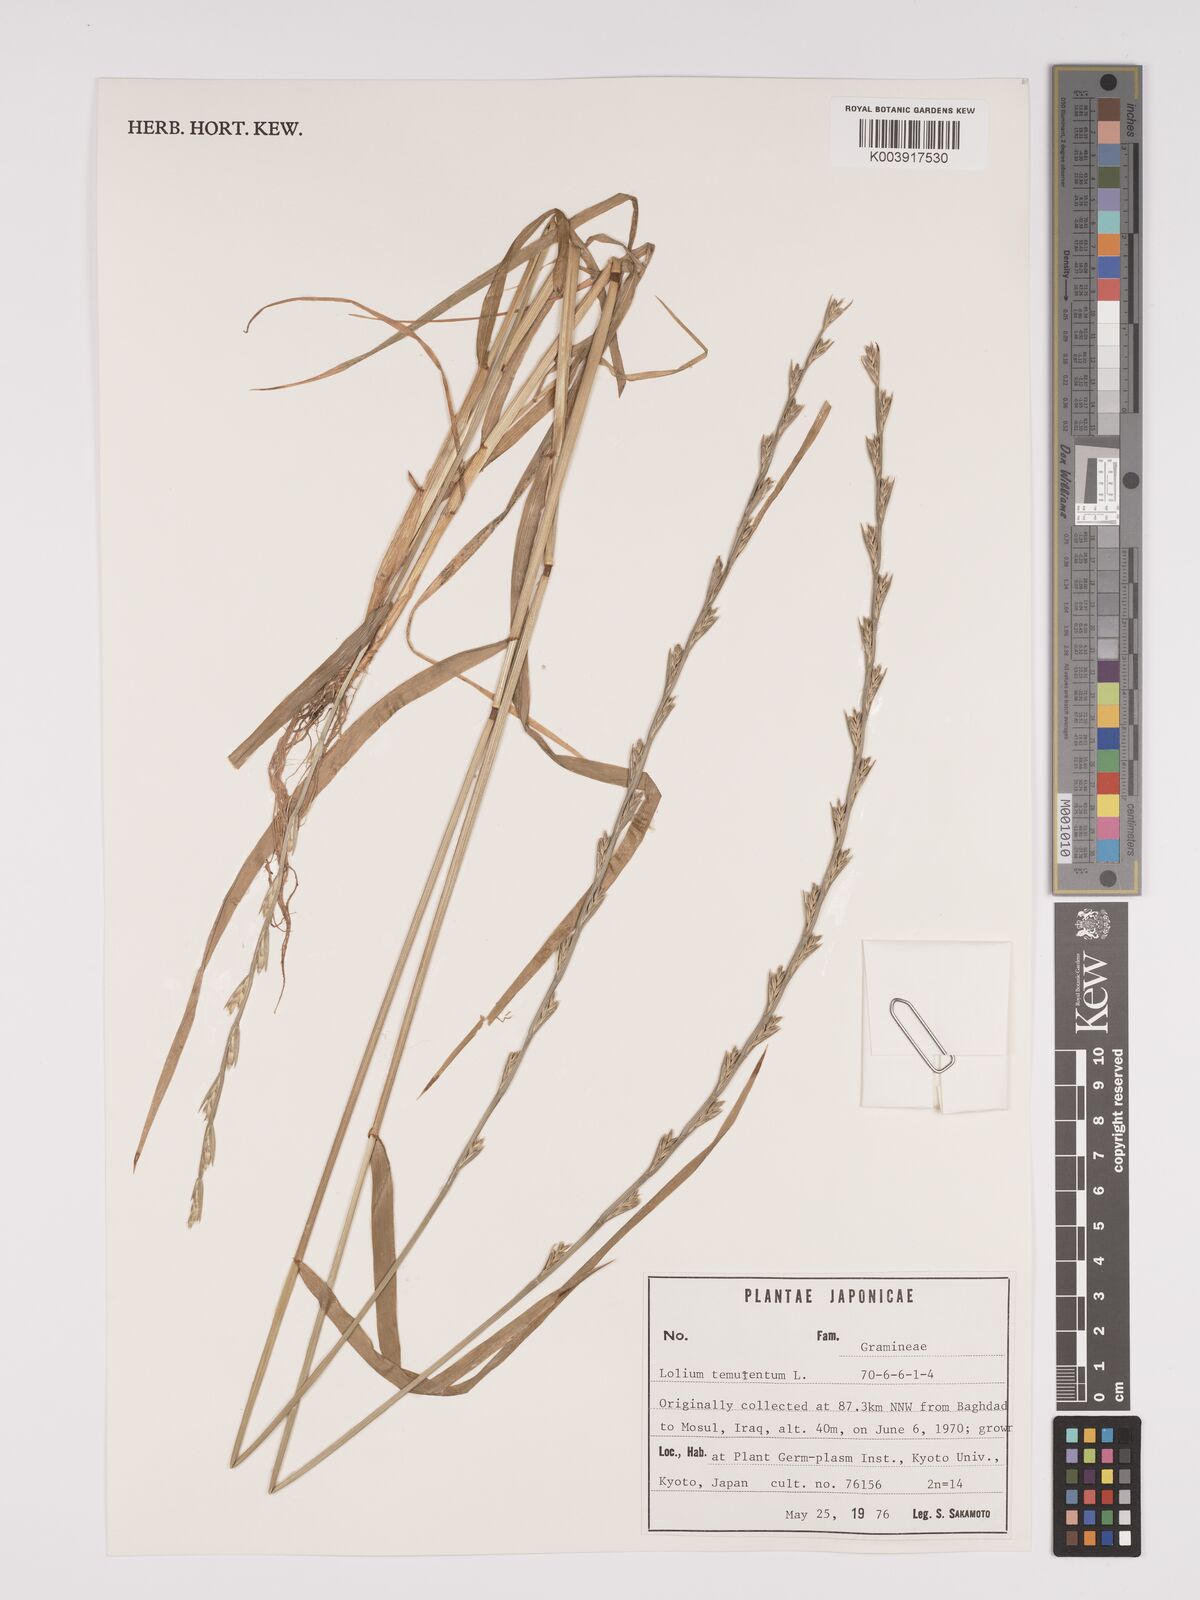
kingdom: Plantae
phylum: Tracheophyta
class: Liliopsida
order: Poales
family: Poaceae
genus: Lolium
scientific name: Lolium temulentum
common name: Darnel
